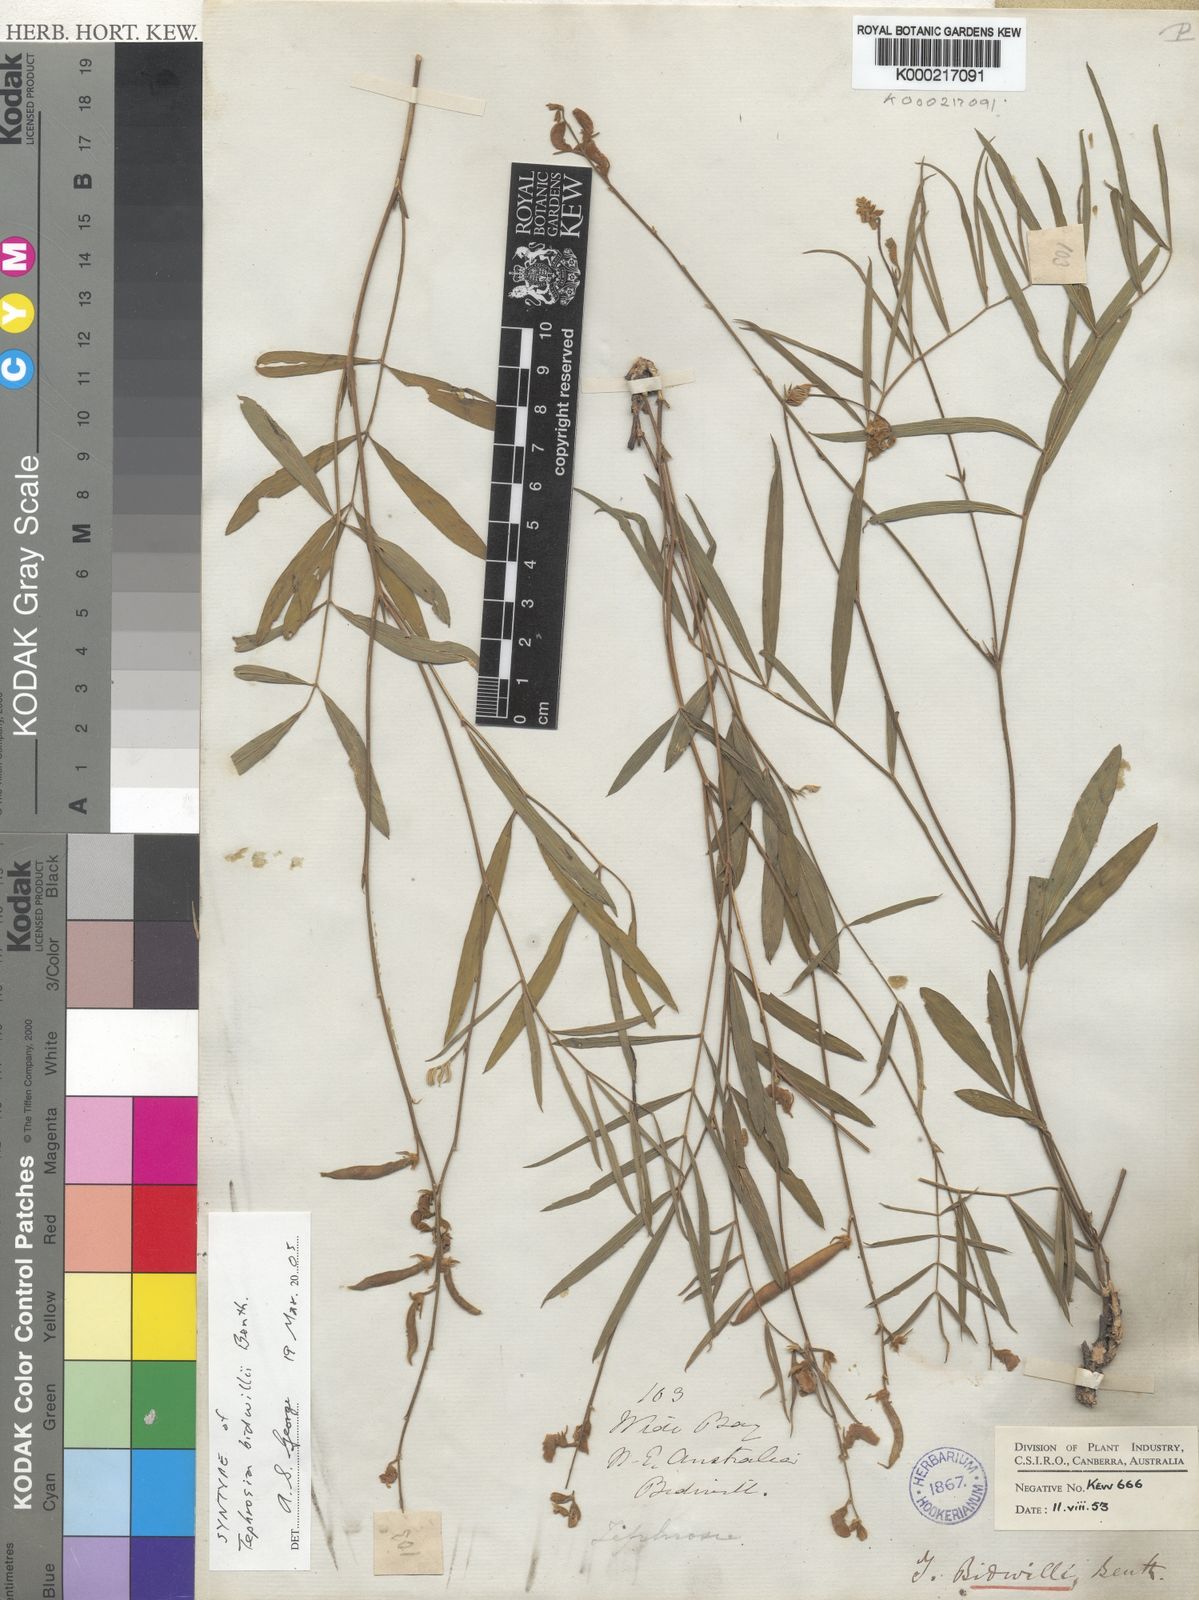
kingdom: Plantae
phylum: Tracheophyta
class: Magnoliopsida
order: Fabales
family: Fabaceae
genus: Tephrosia
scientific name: Tephrosia bidwillii
